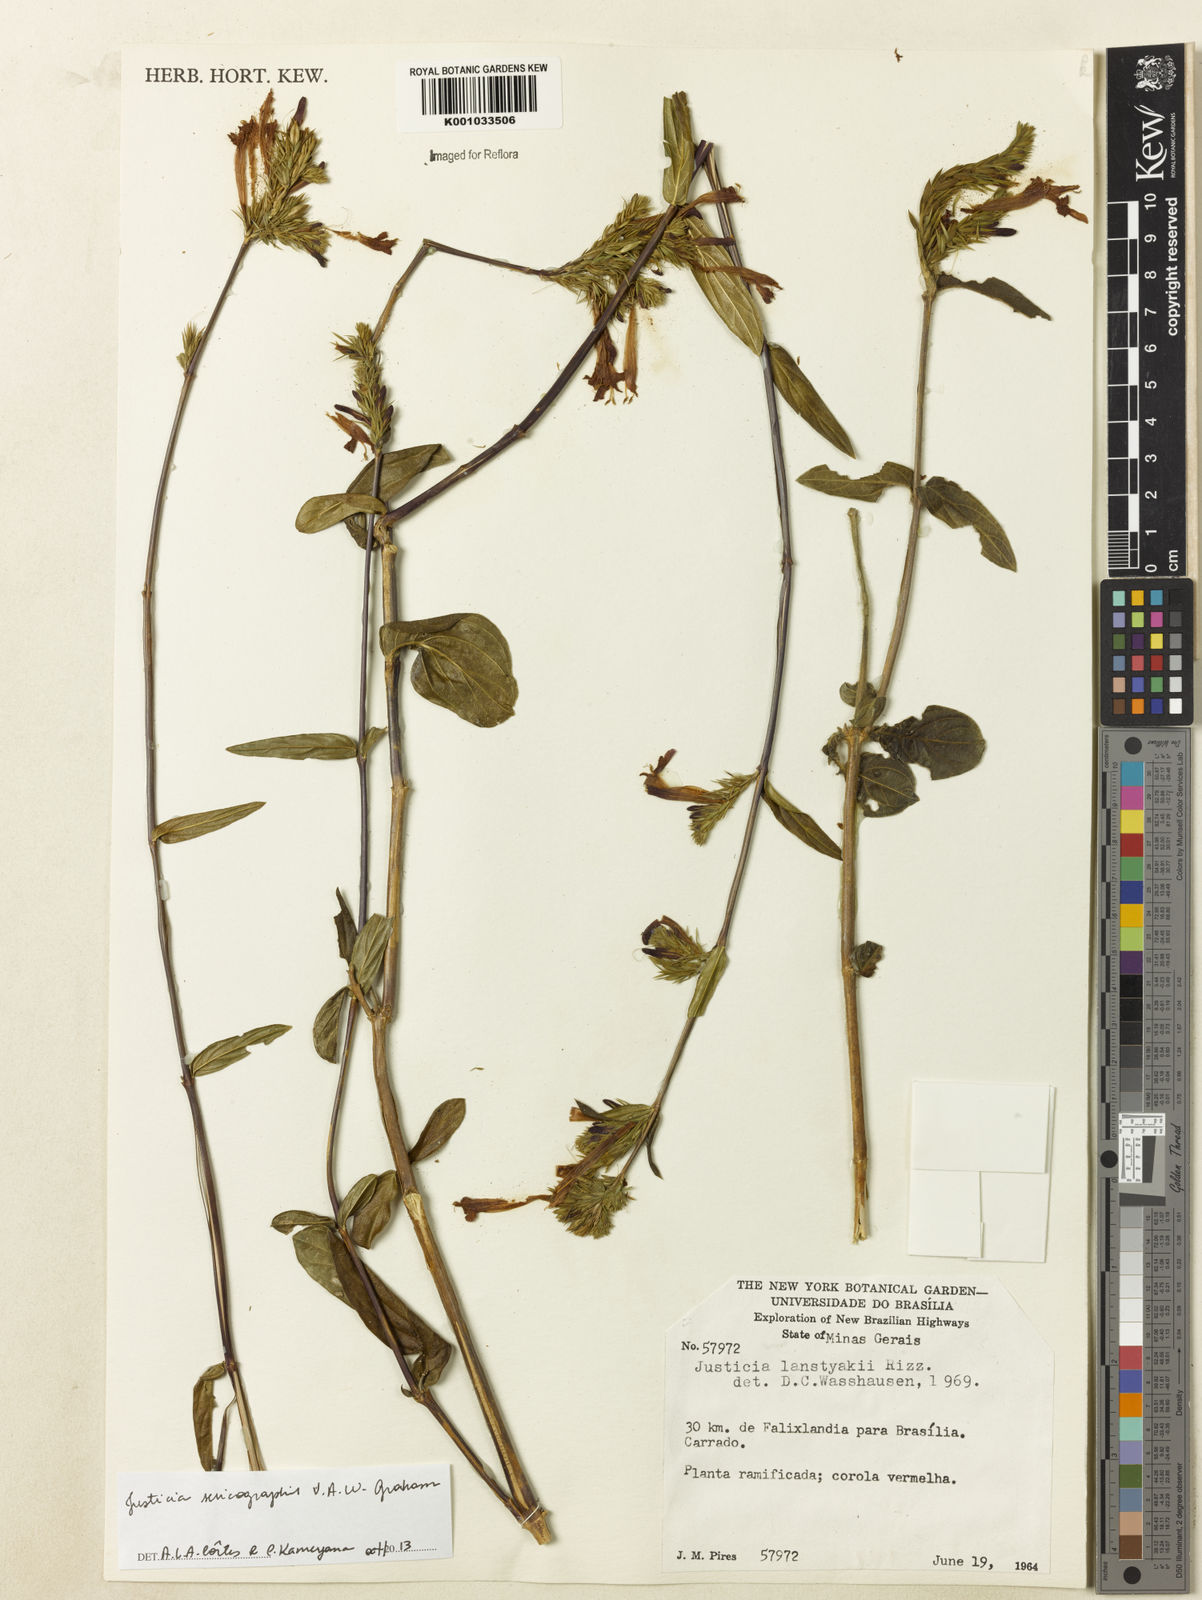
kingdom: Plantae
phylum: Tracheophyta
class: Magnoliopsida
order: Lamiales
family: Acanthaceae
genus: Dianthera
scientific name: Dianthera rigida
